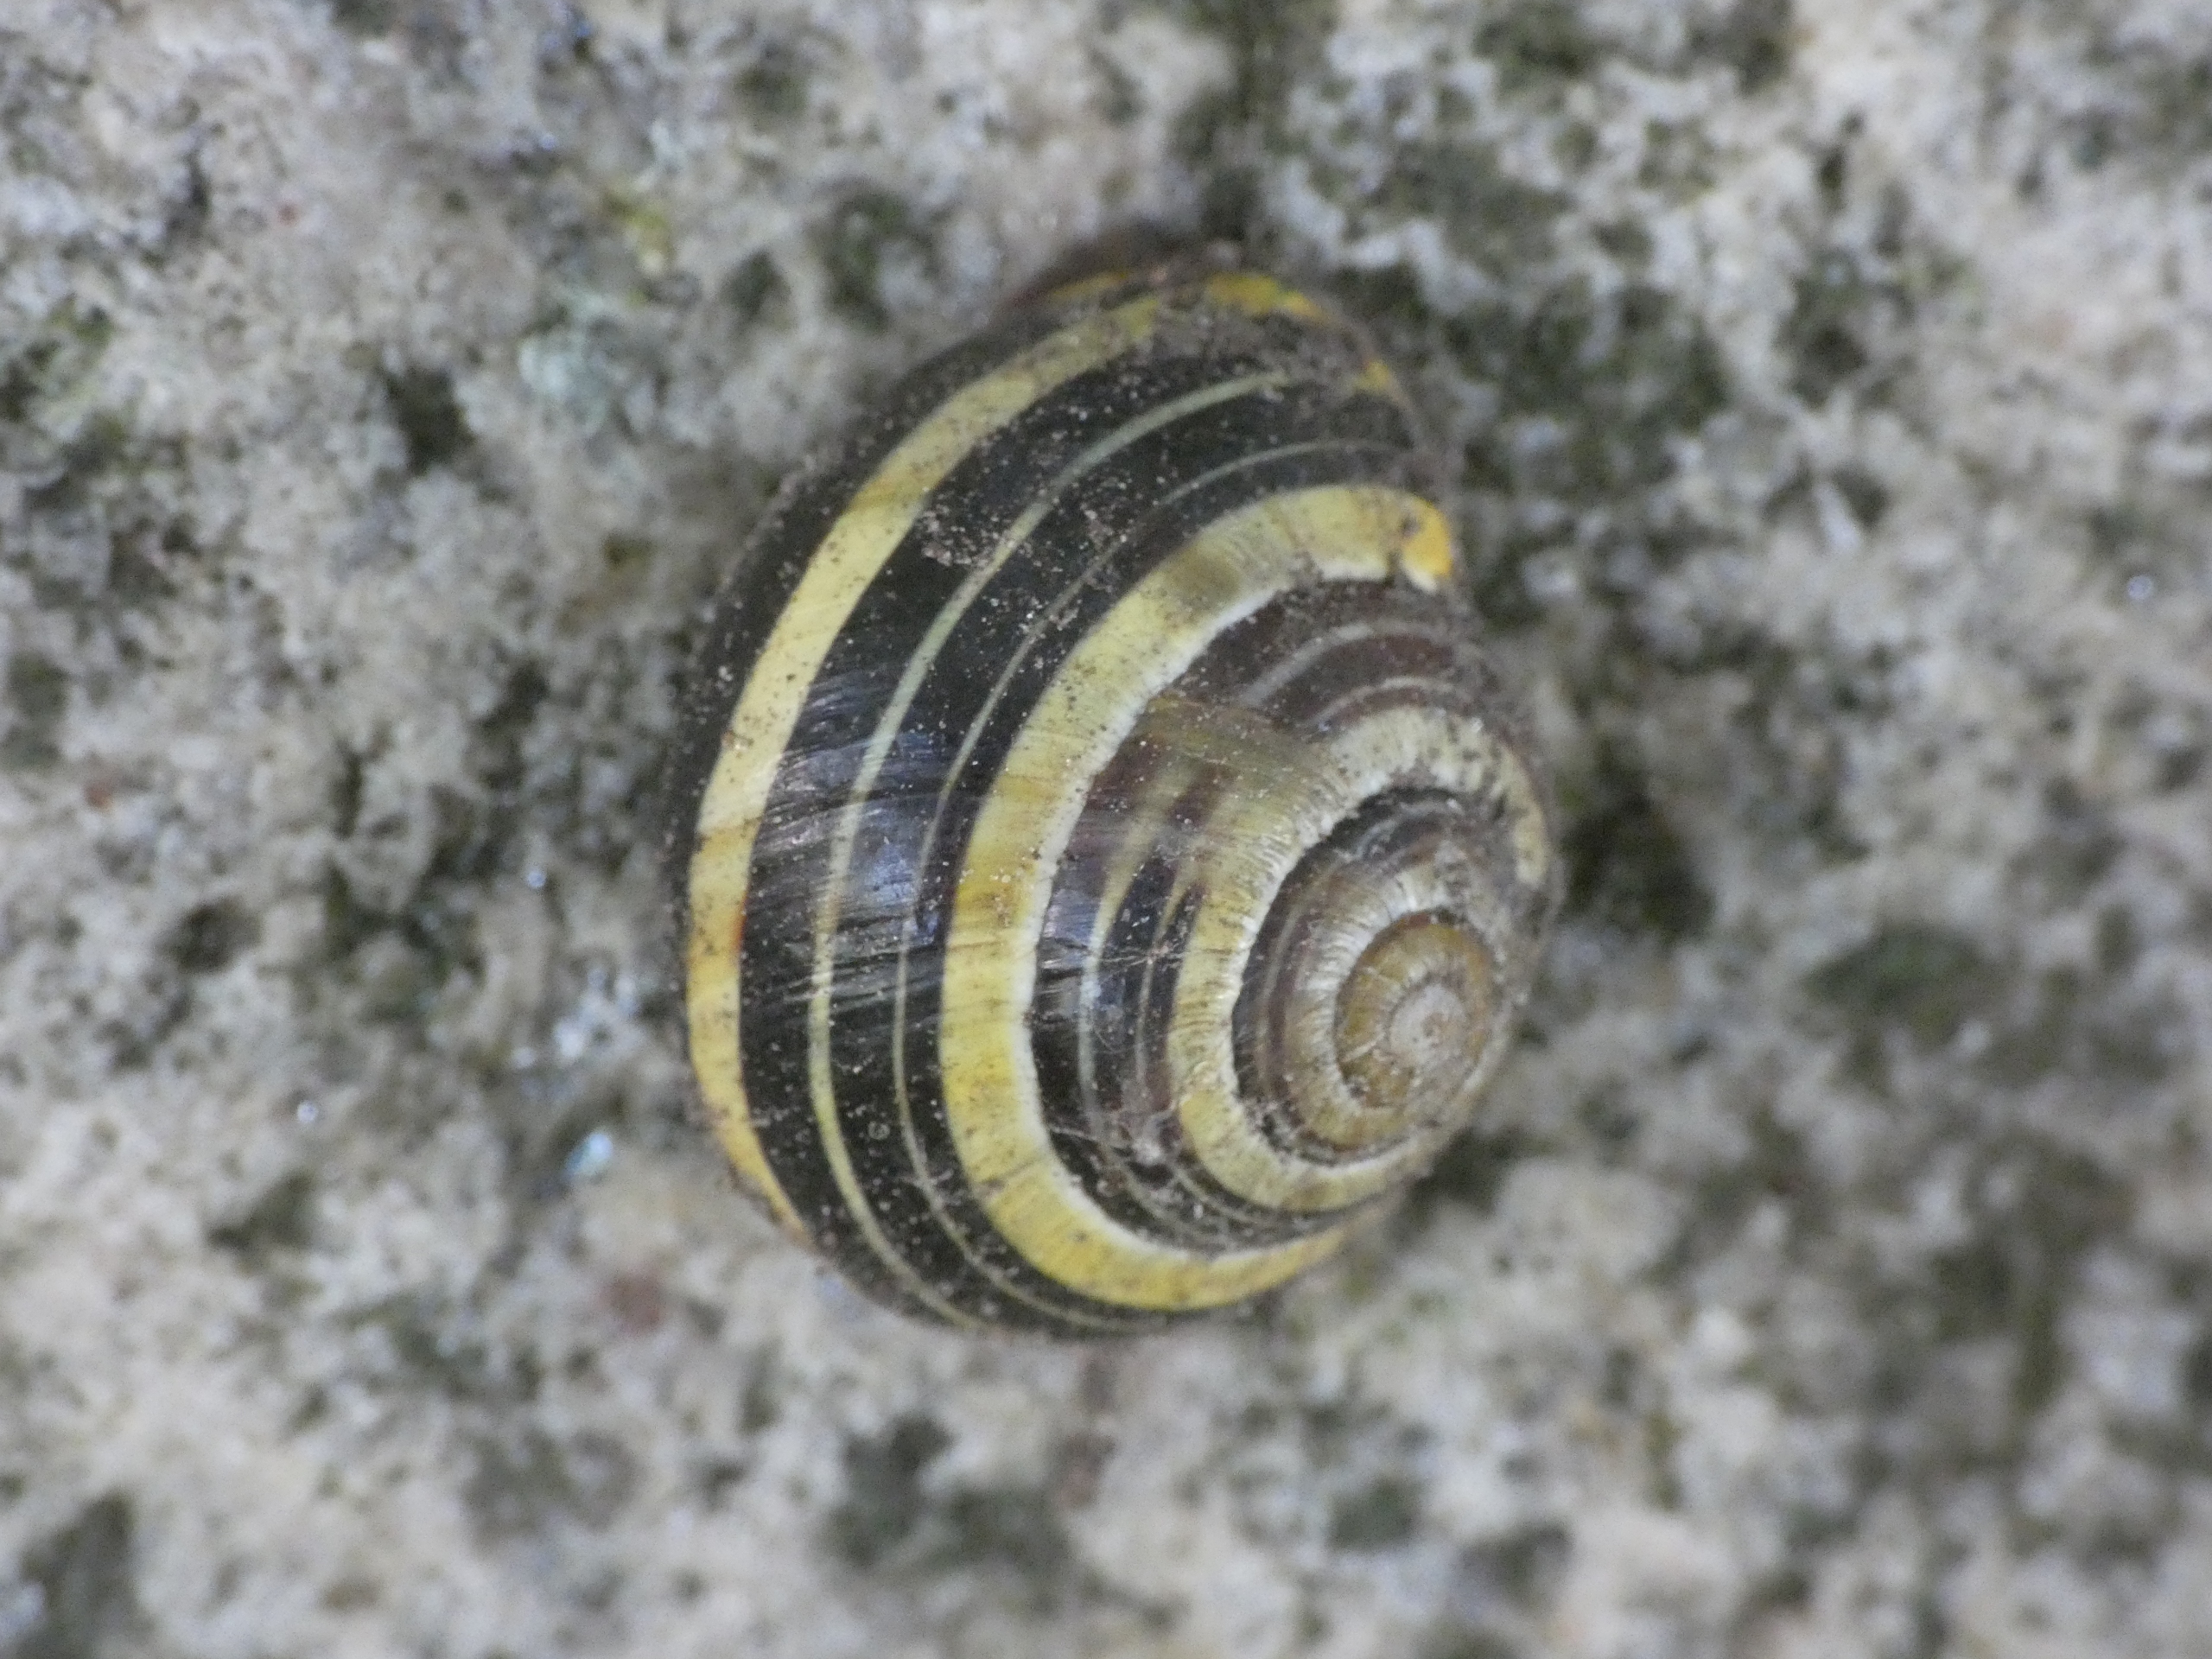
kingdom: Animalia
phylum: Mollusca
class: Gastropoda
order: Stylommatophora
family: Helicidae
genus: Cepaea
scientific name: Cepaea nemoralis
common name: Lundsnegl
